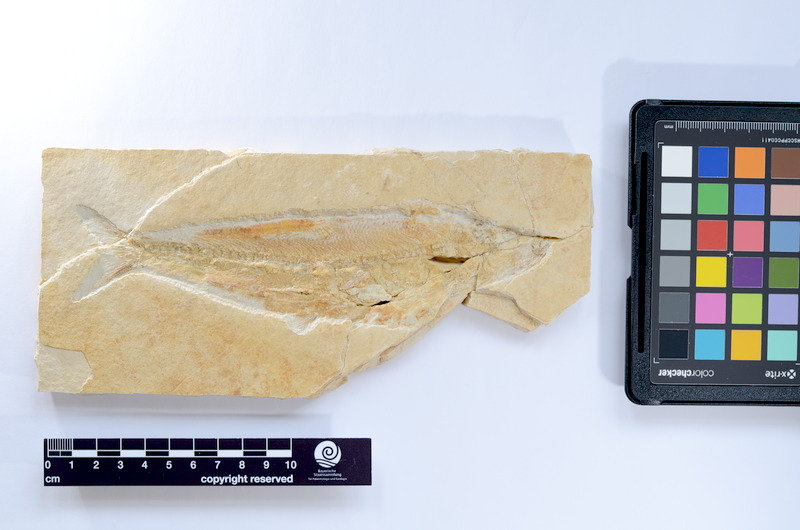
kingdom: Animalia
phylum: Chordata
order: Elopiformes
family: Anaethalionidae
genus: Anaethalion
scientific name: Anaethalion knorri
